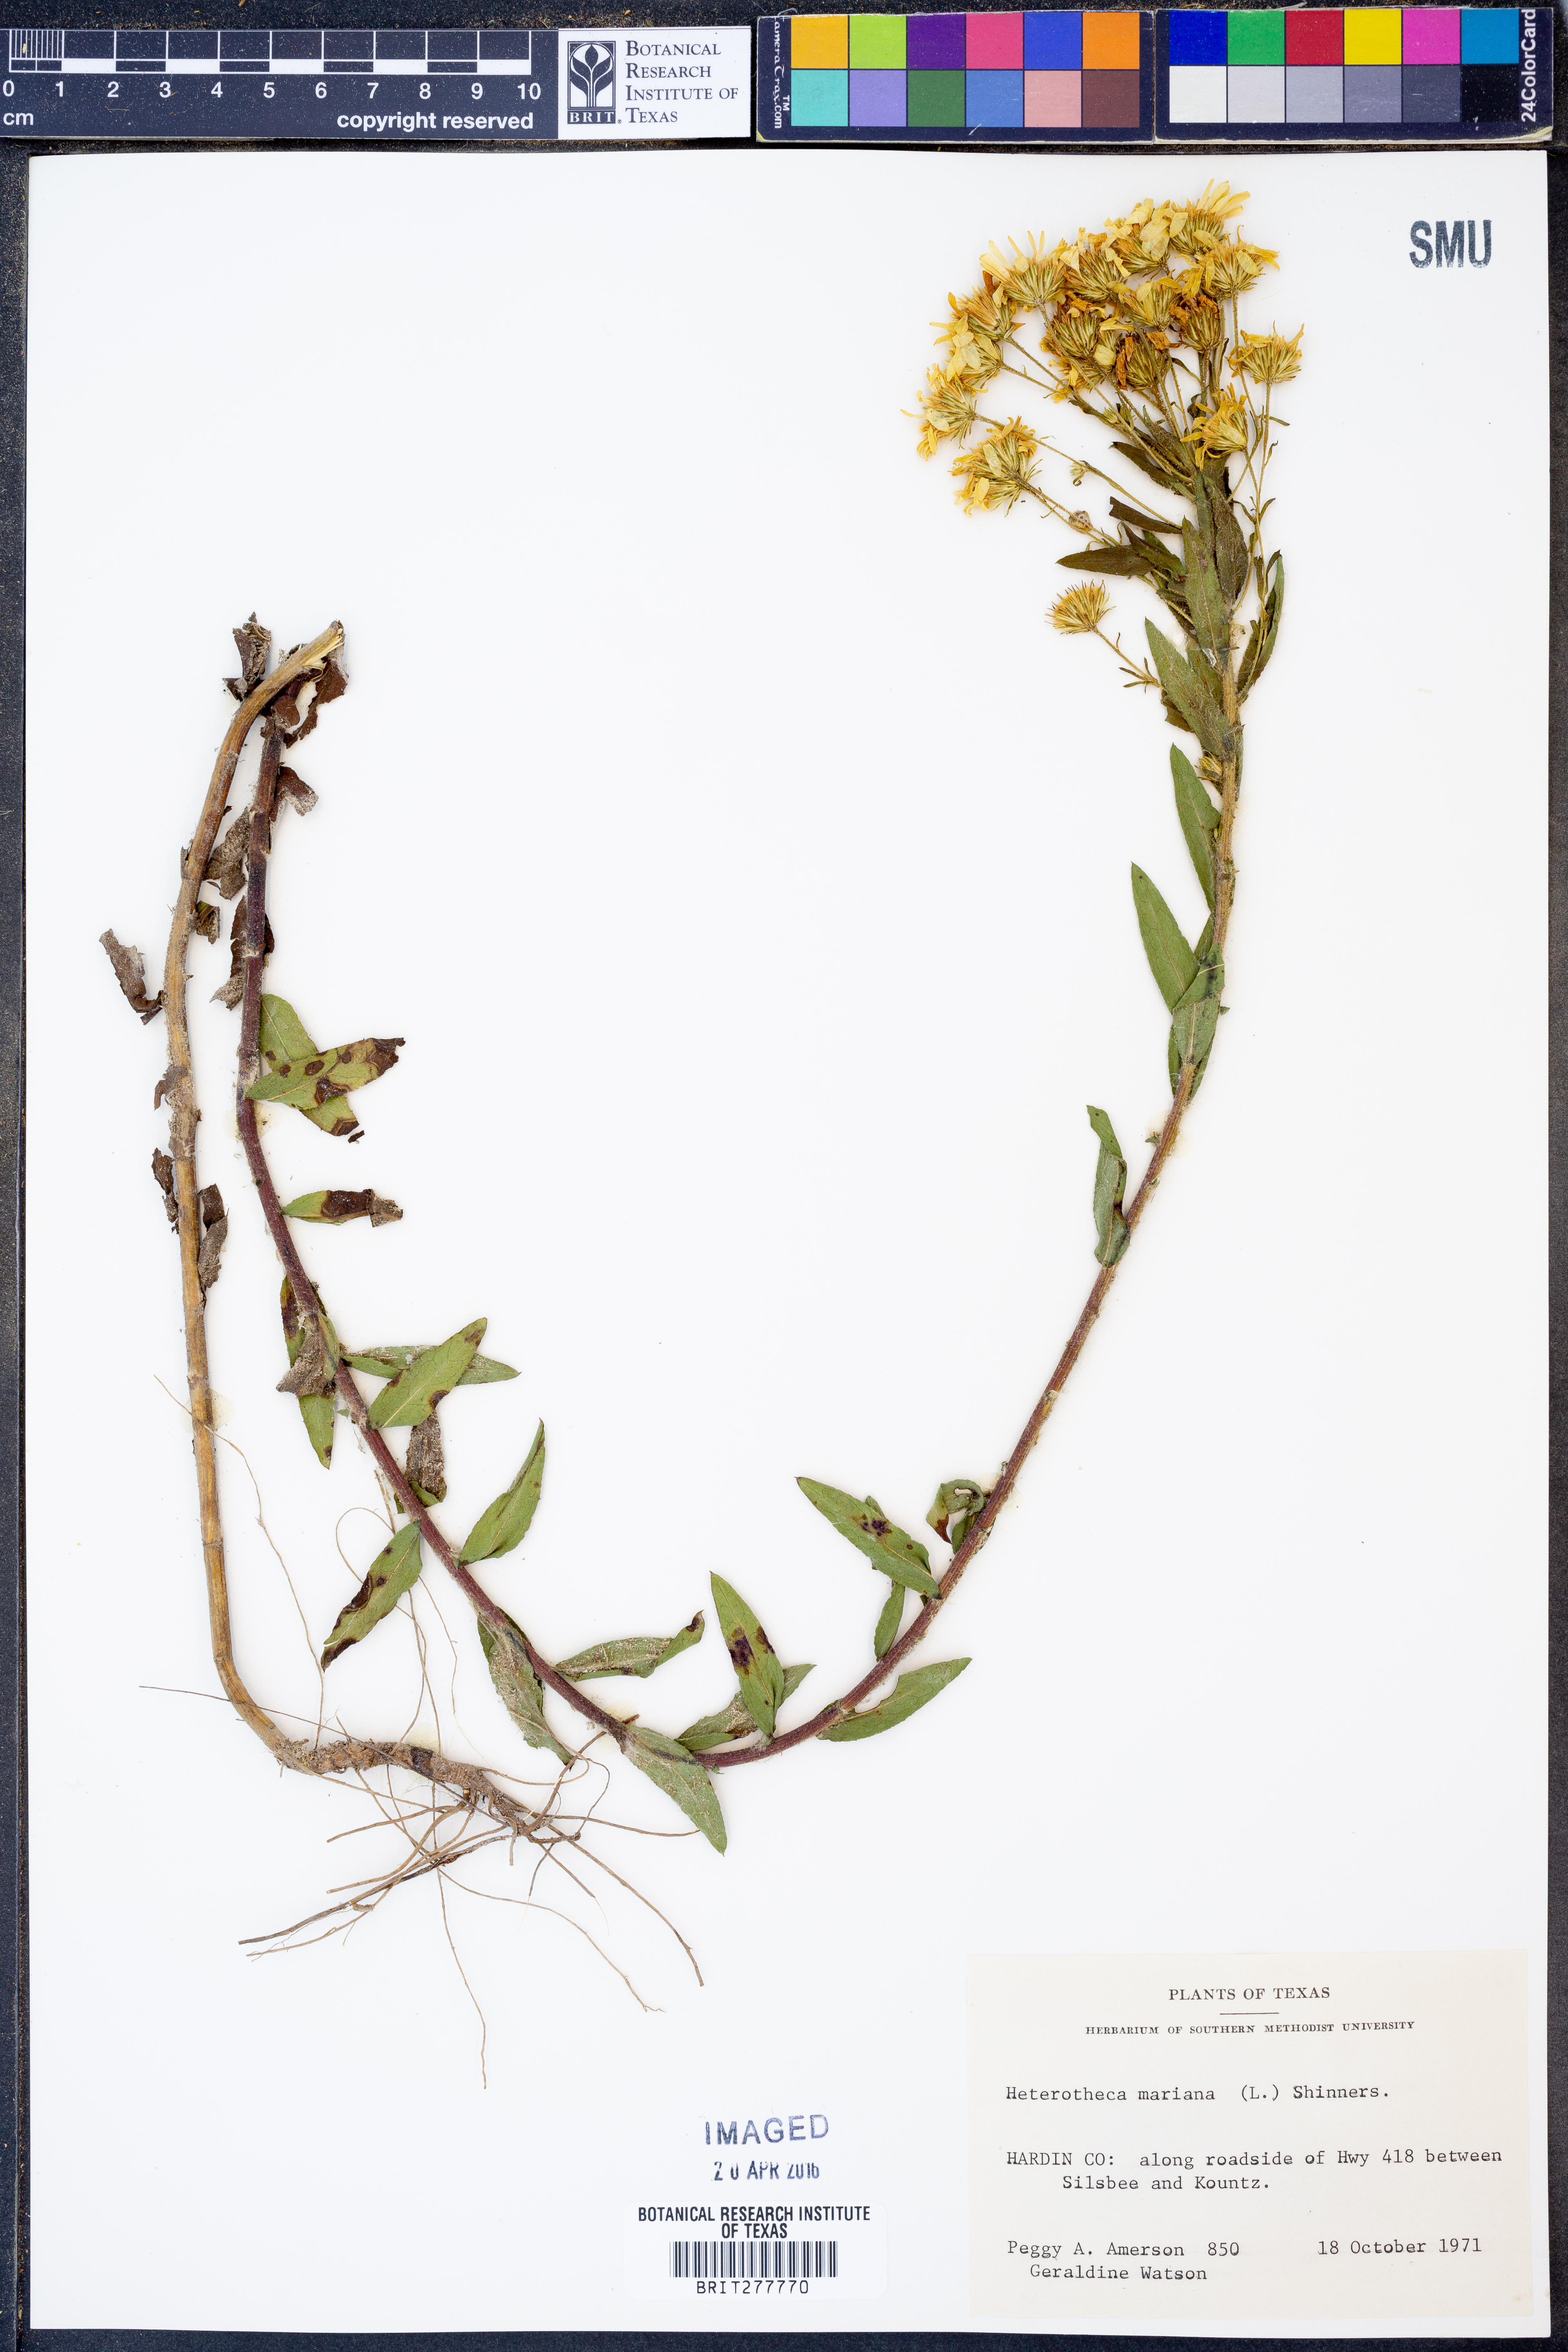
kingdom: Plantae
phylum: Tracheophyta
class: Magnoliopsida
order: Asterales
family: Asteraceae
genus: Chrysopsis
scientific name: Chrysopsis mariana
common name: Maryland golden-aster
